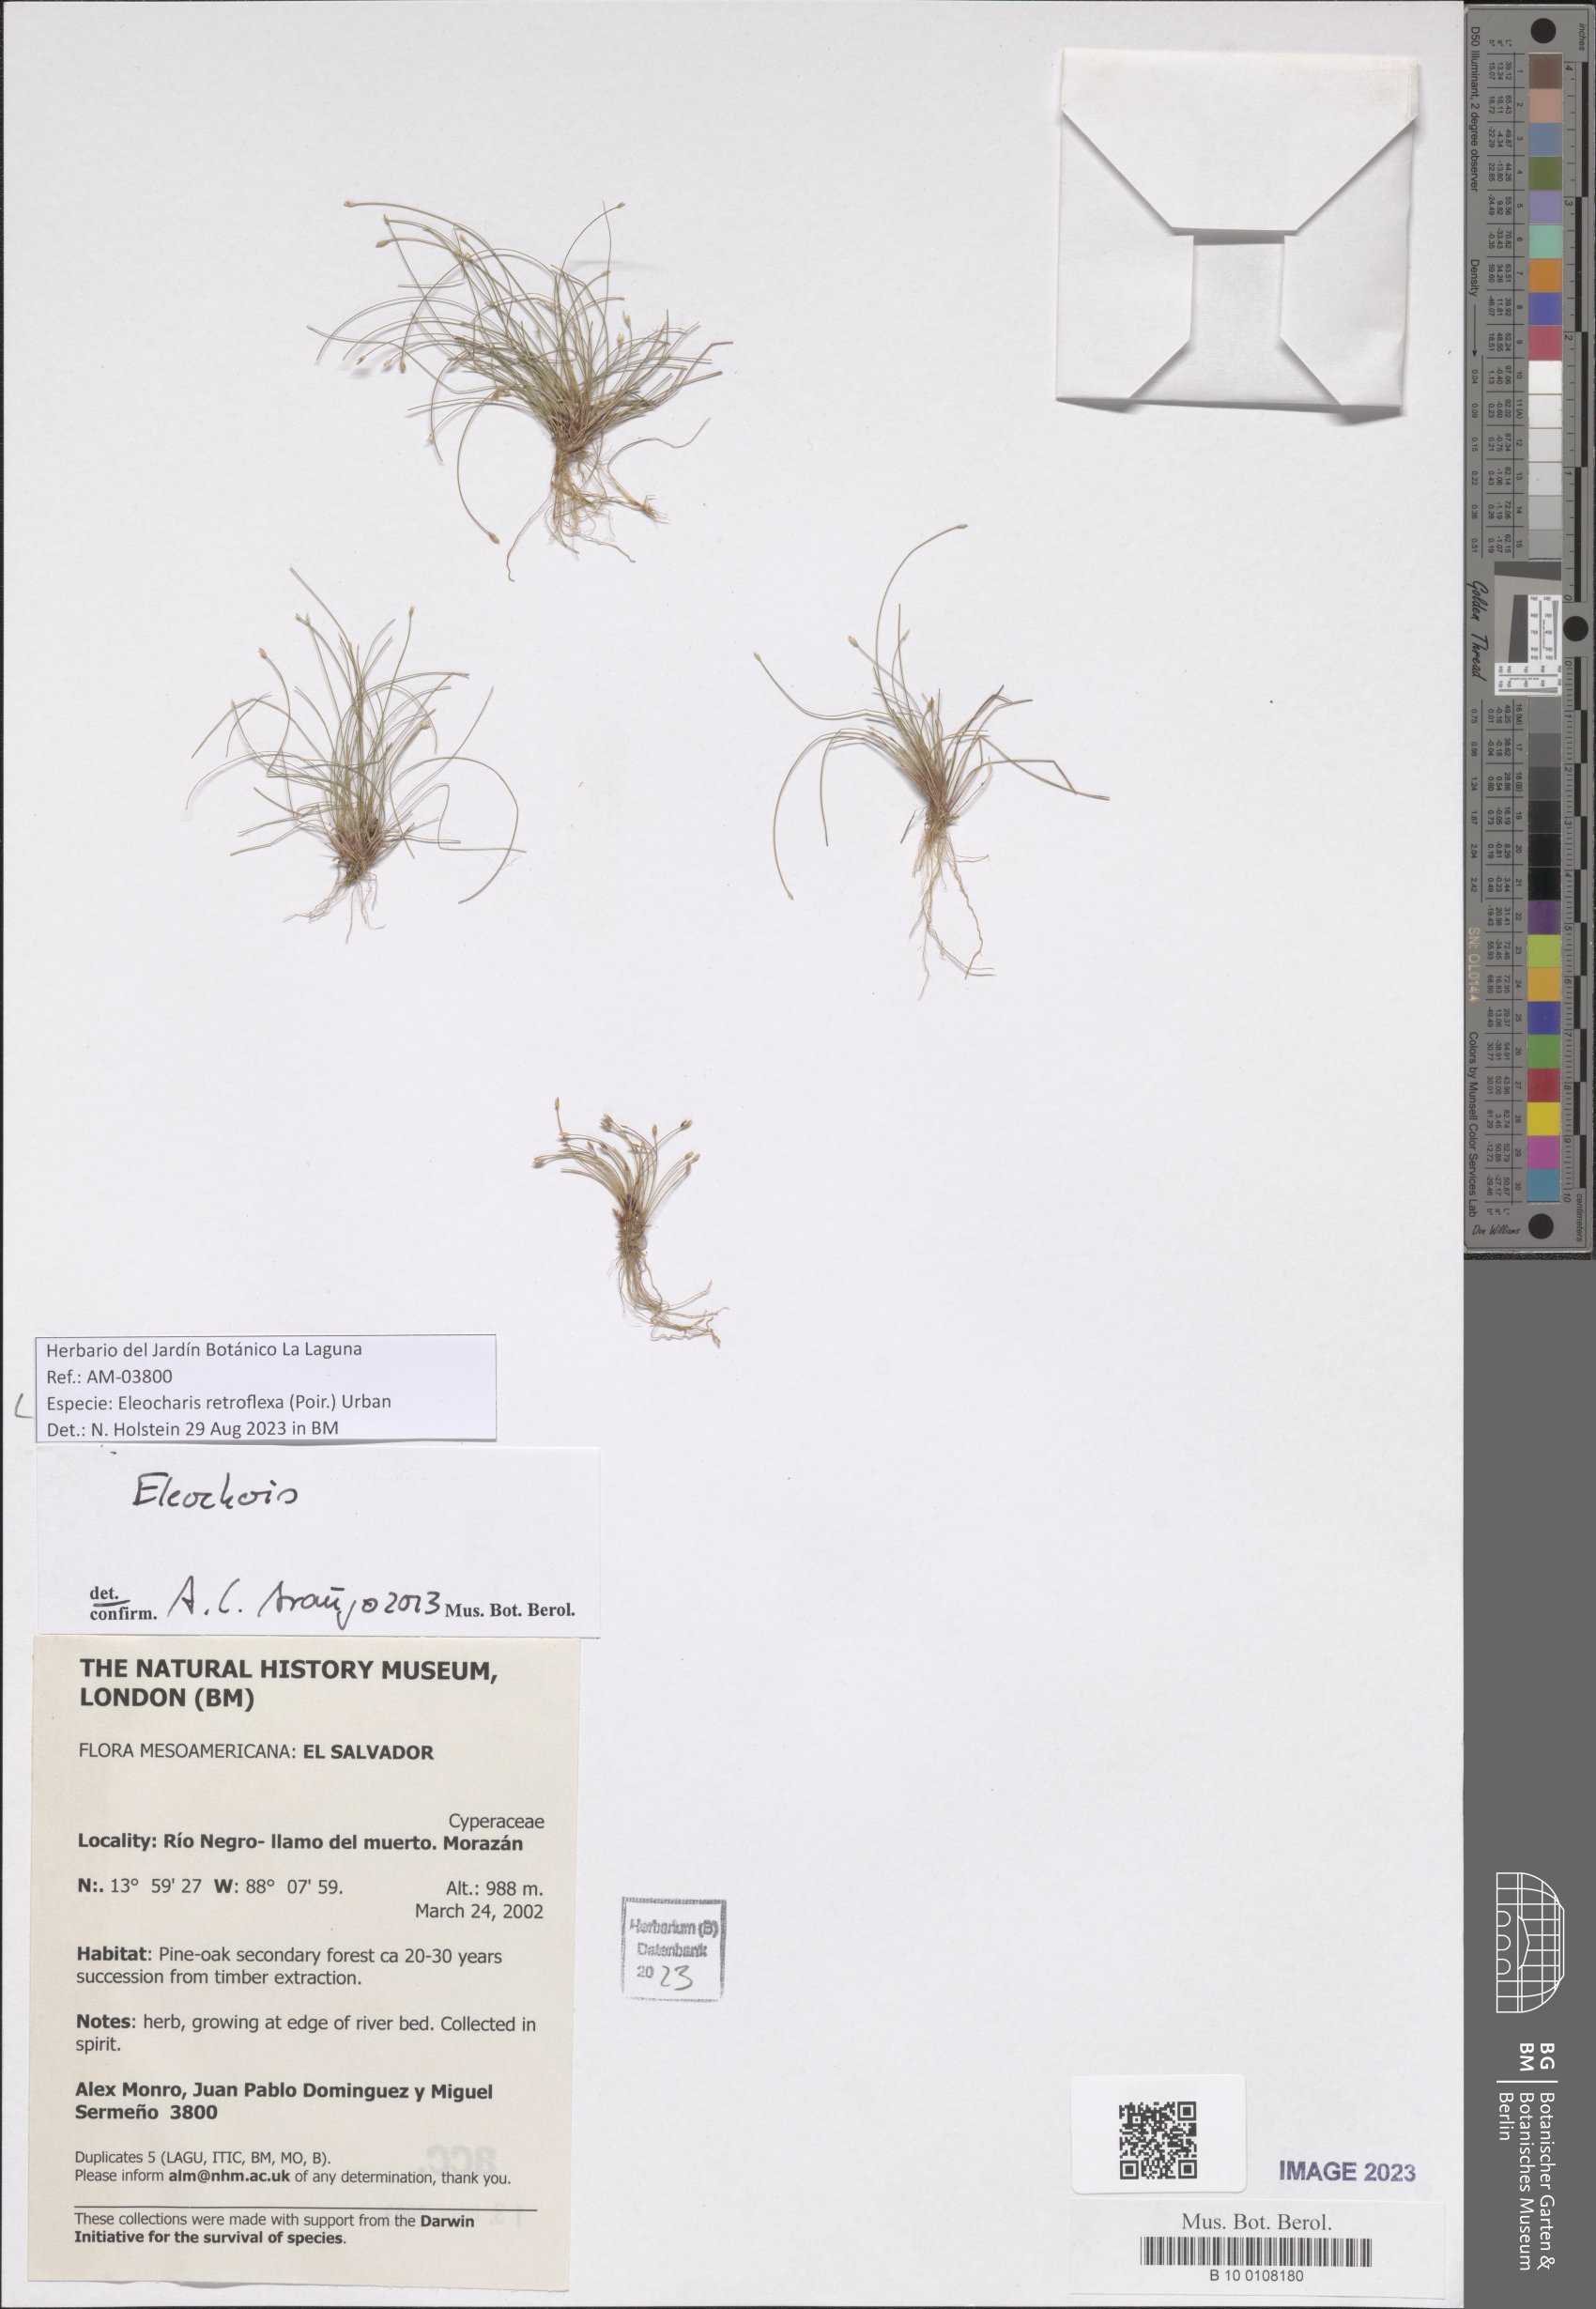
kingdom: Plantae
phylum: Tracheophyta
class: Liliopsida
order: Poales
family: Cyperaceae
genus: Eleocharis
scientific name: Eleocharis retroflexa
